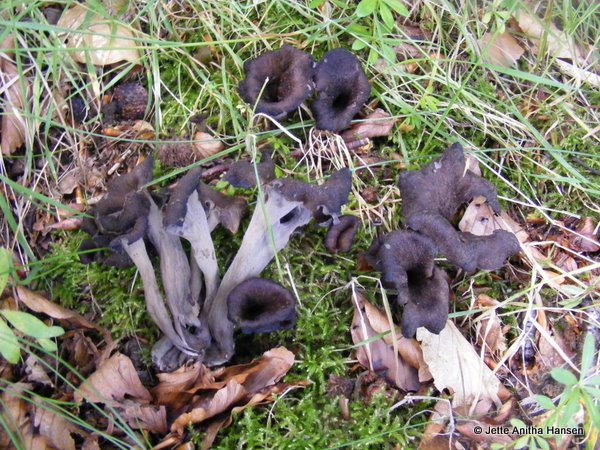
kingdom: Fungi
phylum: Basidiomycota
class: Agaricomycetes
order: Cantharellales
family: Hydnaceae
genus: Craterellus
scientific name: Craterellus cornucopioides
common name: trompetsvamp
